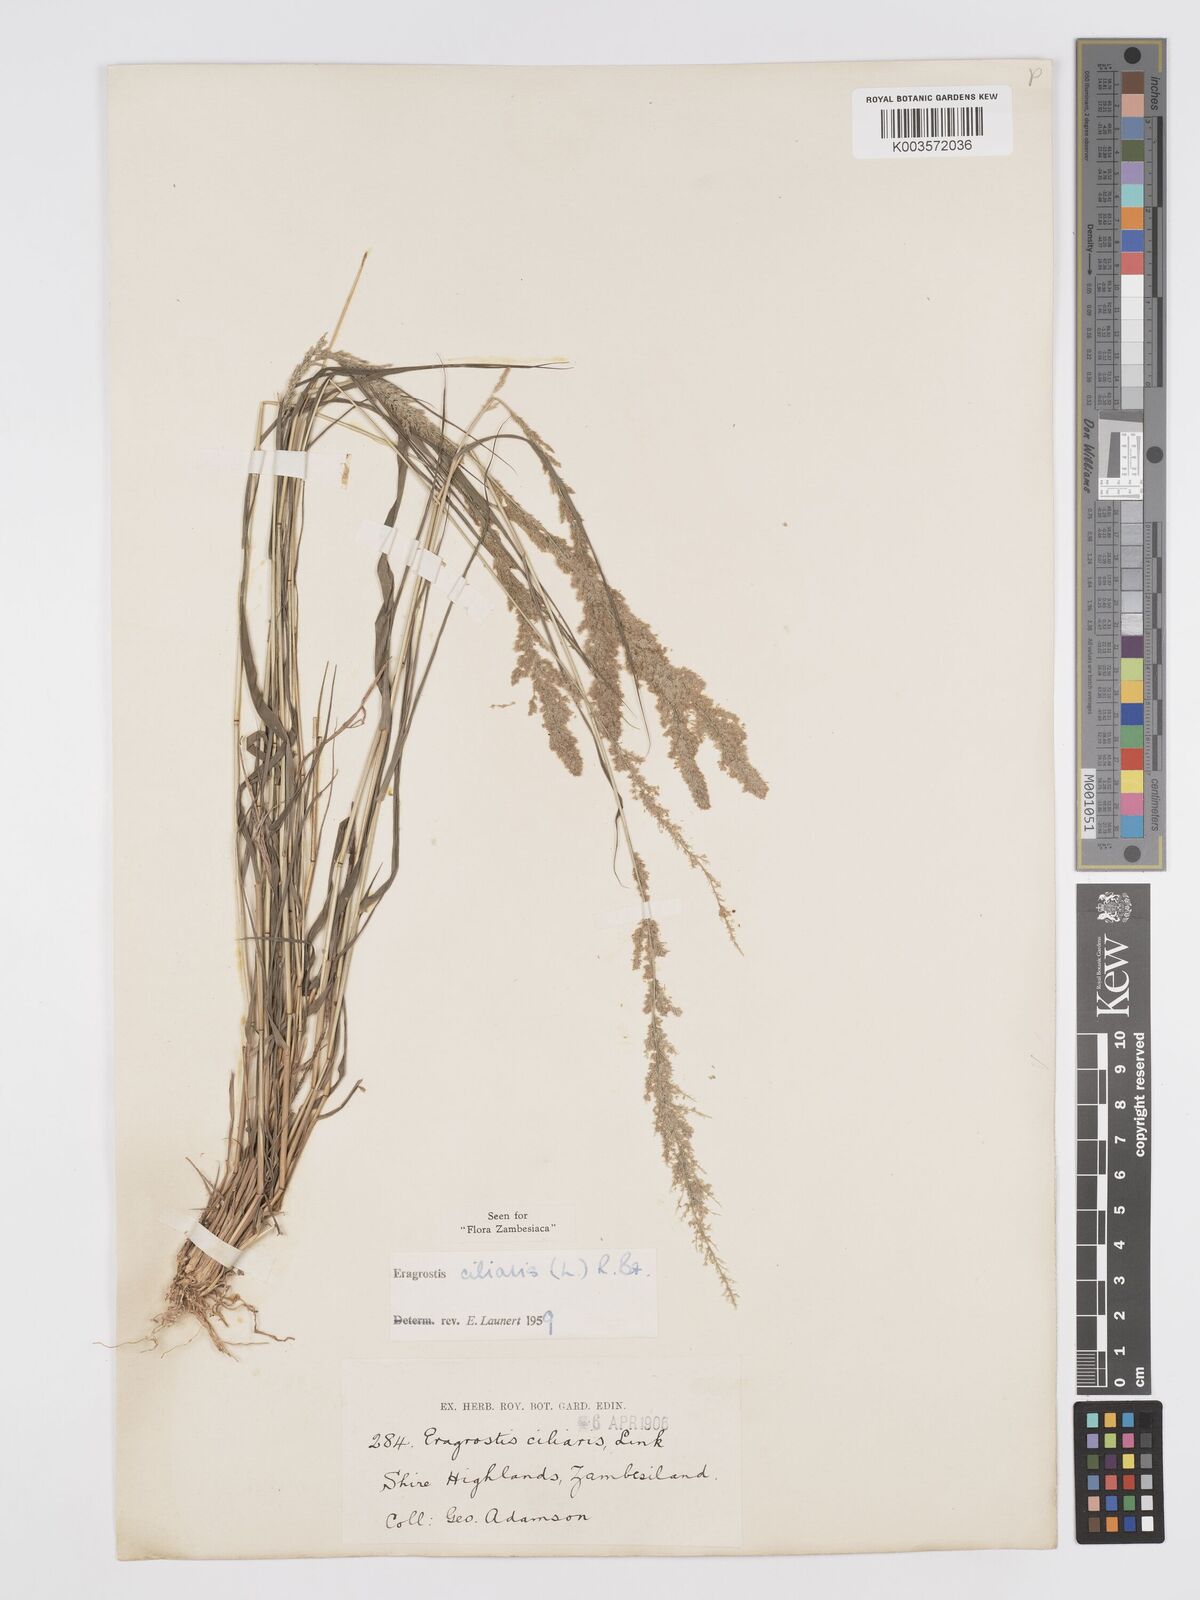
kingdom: Plantae
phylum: Tracheophyta
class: Liliopsida
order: Poales
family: Poaceae
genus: Eragrostis
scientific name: Eragrostis ciliaris
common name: Gophertail lovegrass
